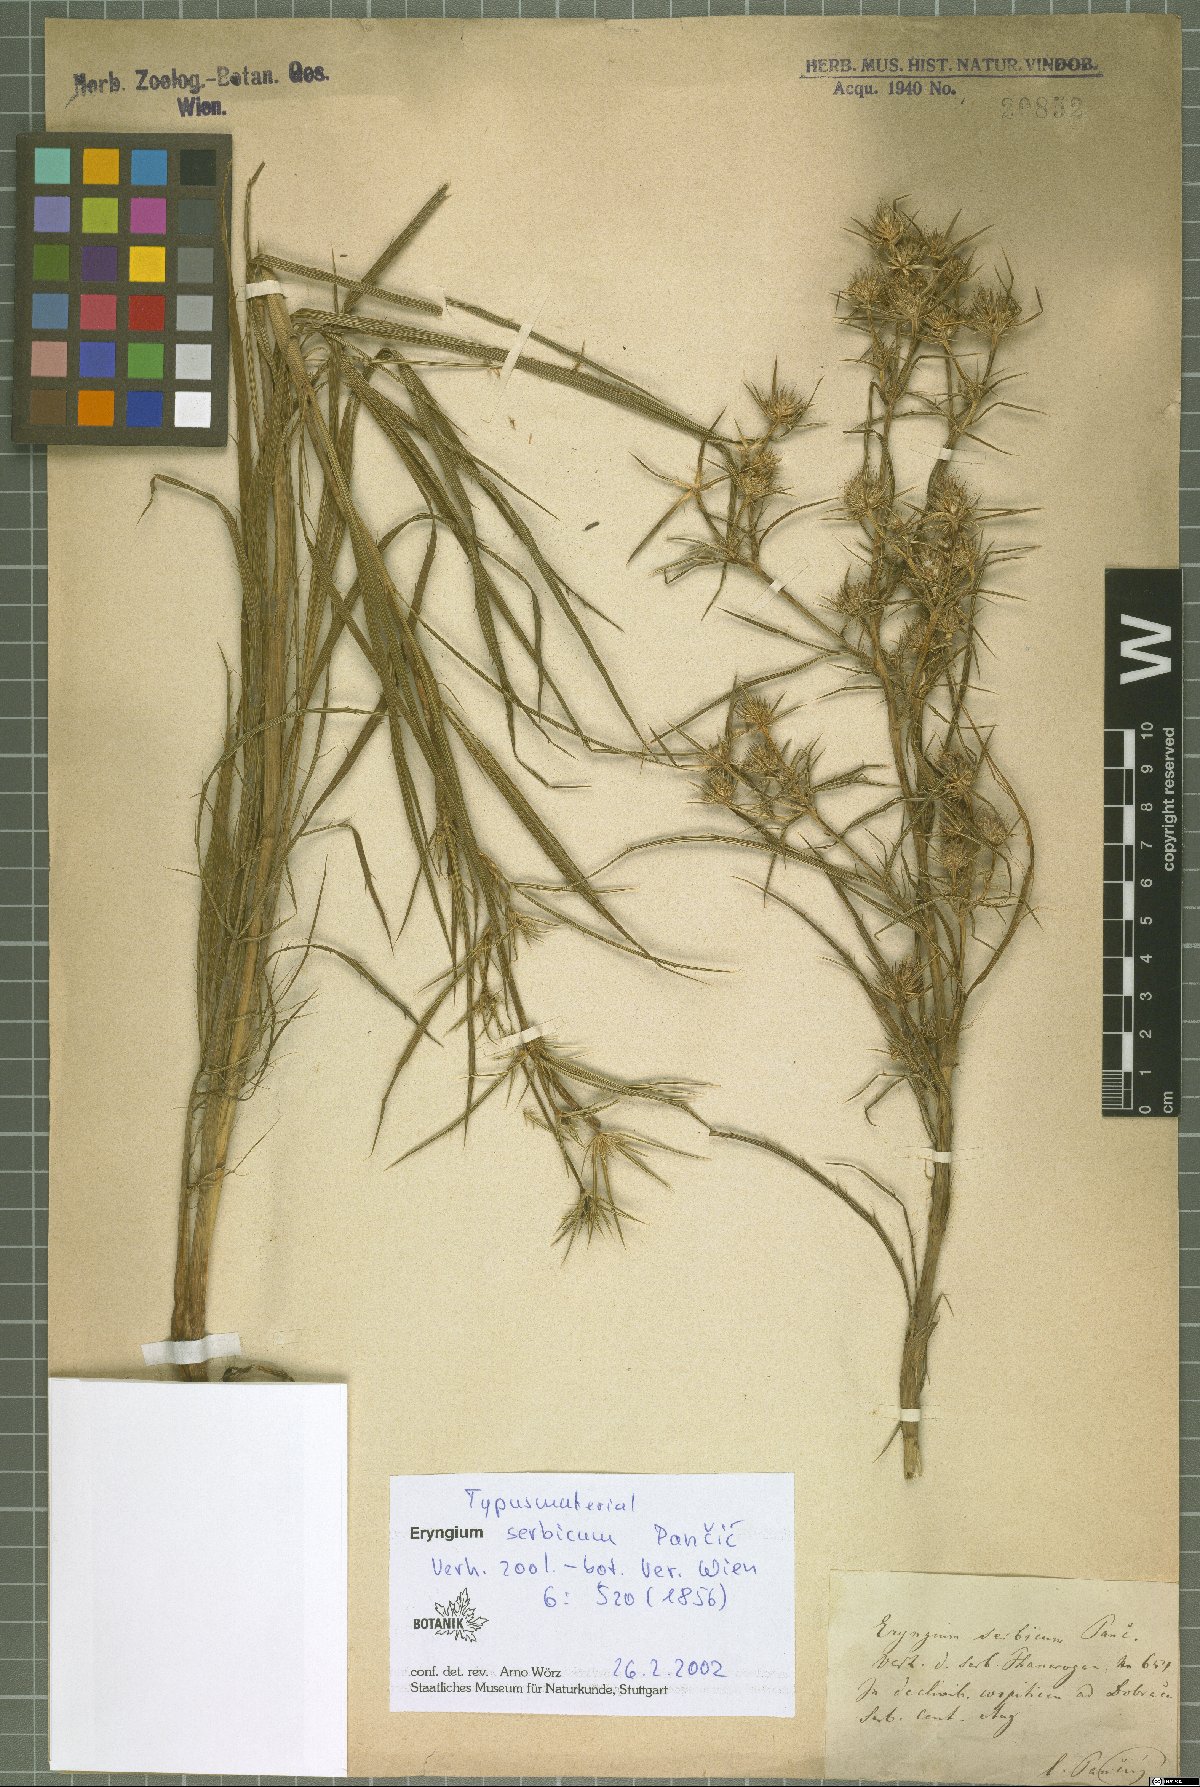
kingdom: Plantae
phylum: Tracheophyta
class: Magnoliopsida
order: Apiales
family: Apiaceae
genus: Eryngium
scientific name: Eryngium serbicum
